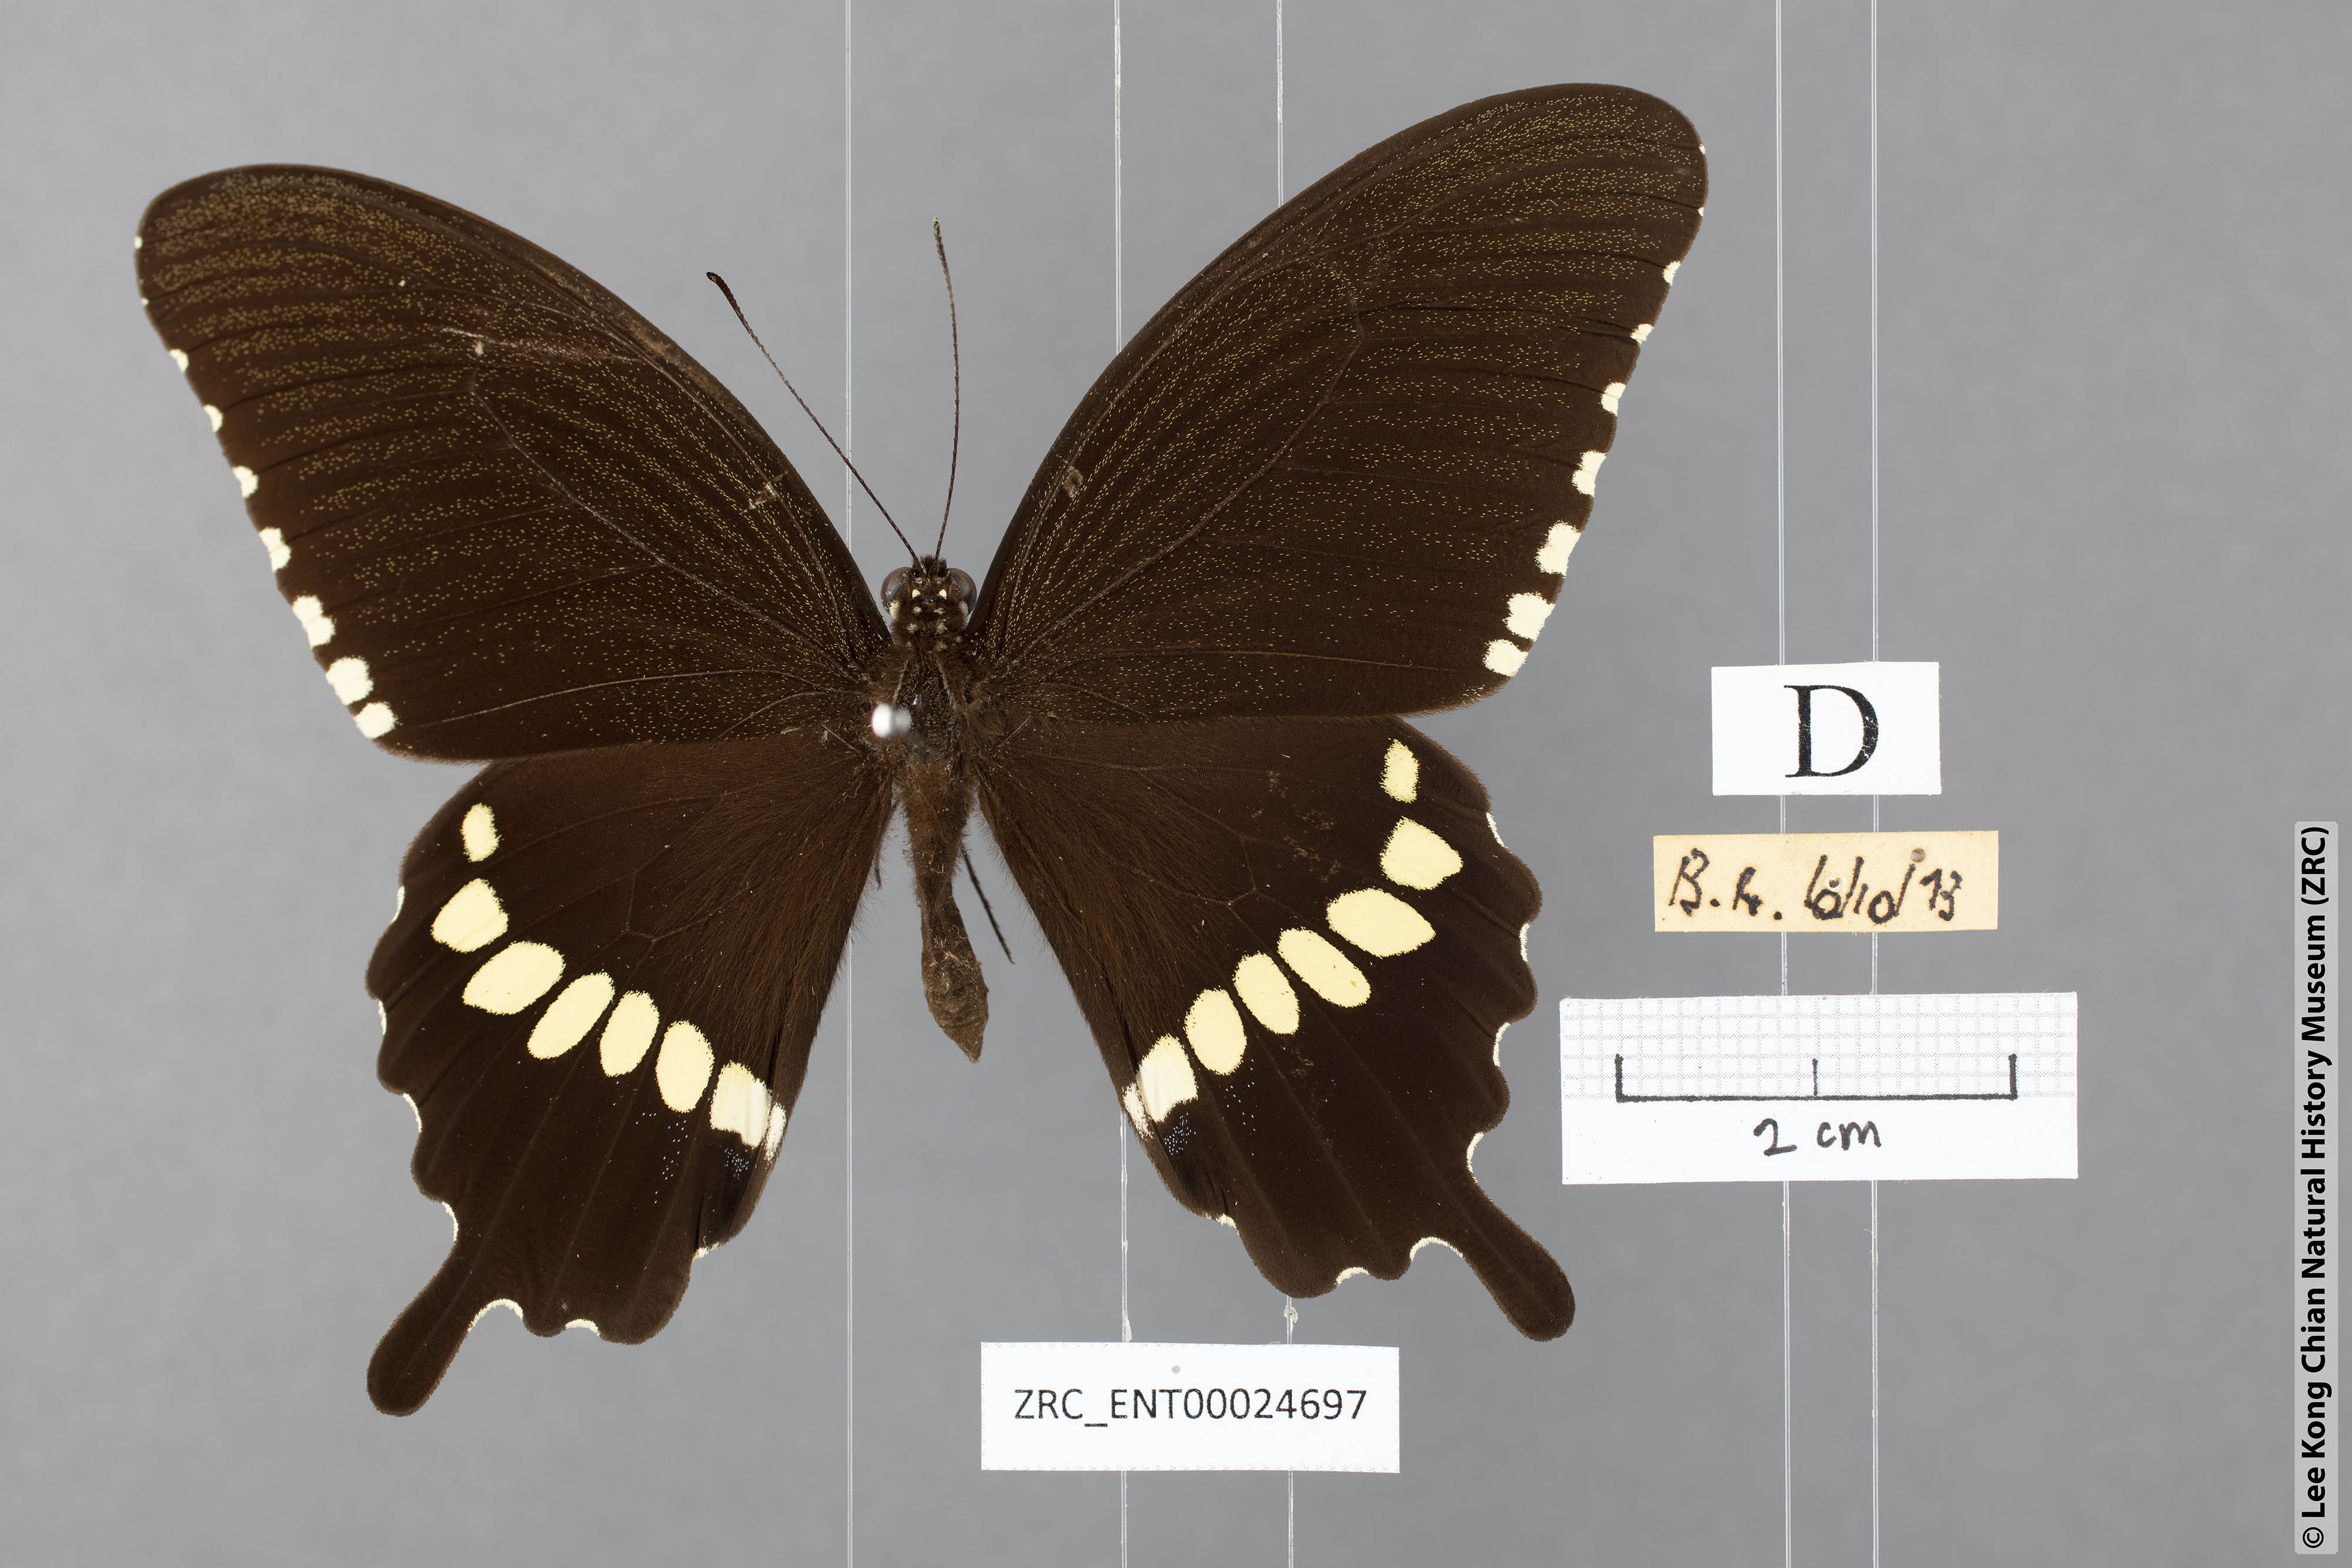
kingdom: Animalia
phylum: Arthropoda
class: Insecta
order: Lepidoptera
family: Papilionidae
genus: Papilio
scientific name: Papilio polytes
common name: Common mormon
